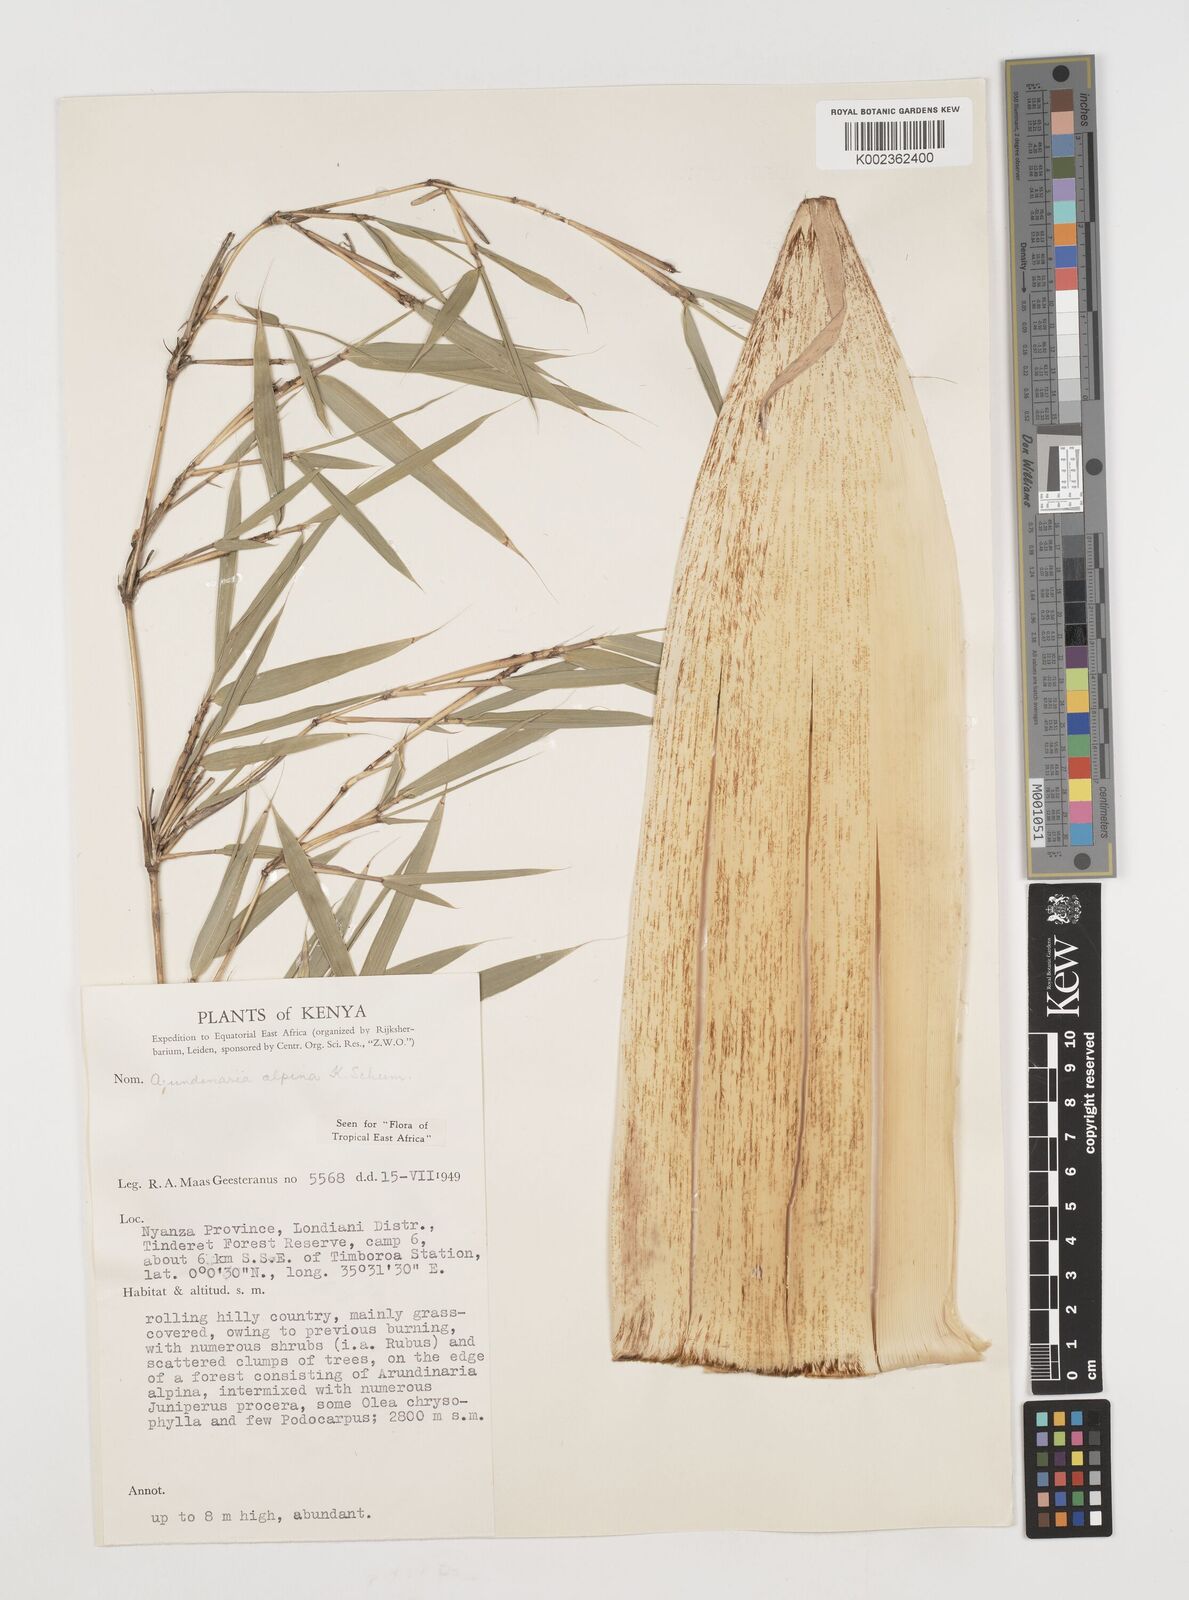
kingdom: Plantae
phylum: Tracheophyta
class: Liliopsida
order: Poales
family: Poaceae
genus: Oldeania
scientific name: Oldeania alpina
